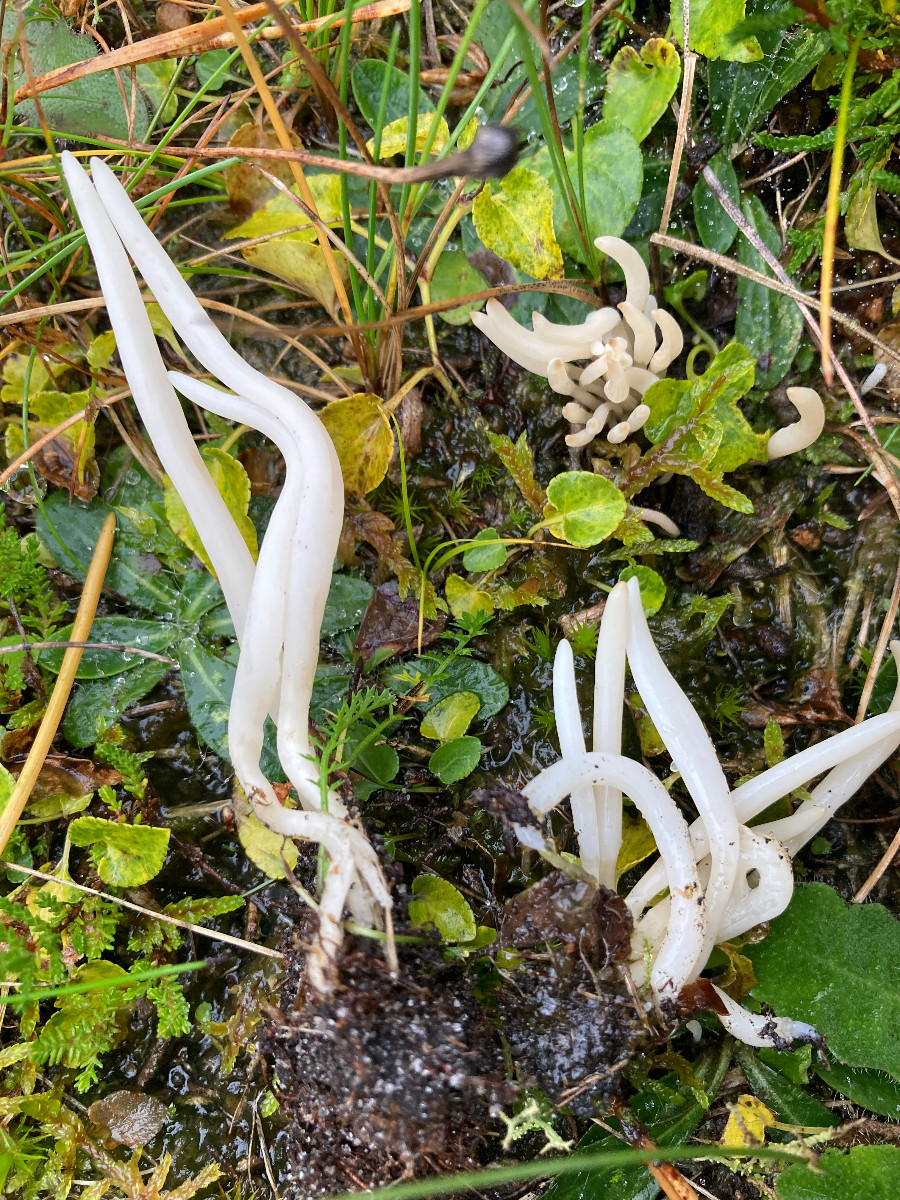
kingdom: Fungi
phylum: Basidiomycota
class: Agaricomycetes
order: Agaricales
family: Clavariaceae
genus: Clavaria
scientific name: Clavaria
